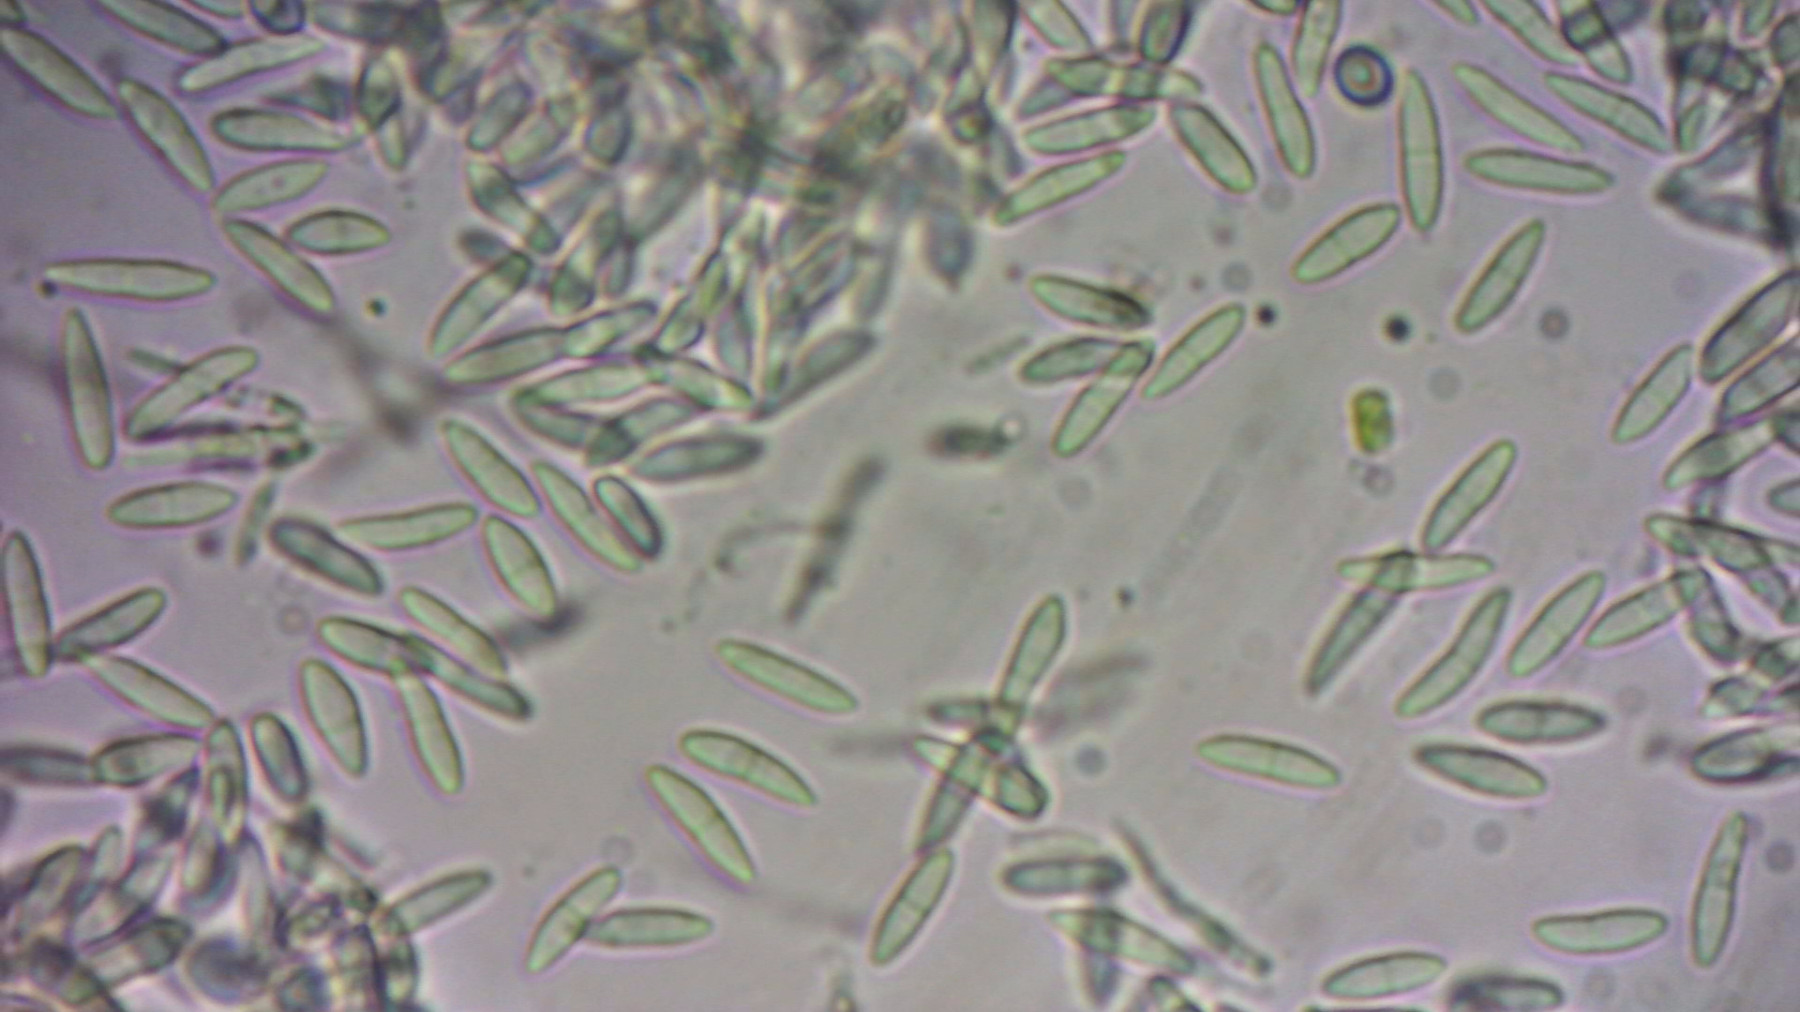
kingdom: Fungi
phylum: Ascomycota
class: Sordariomycetes
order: Diaporthales
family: Gnomoniaceae
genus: Sirococcus
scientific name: Sirococcus conigenus
